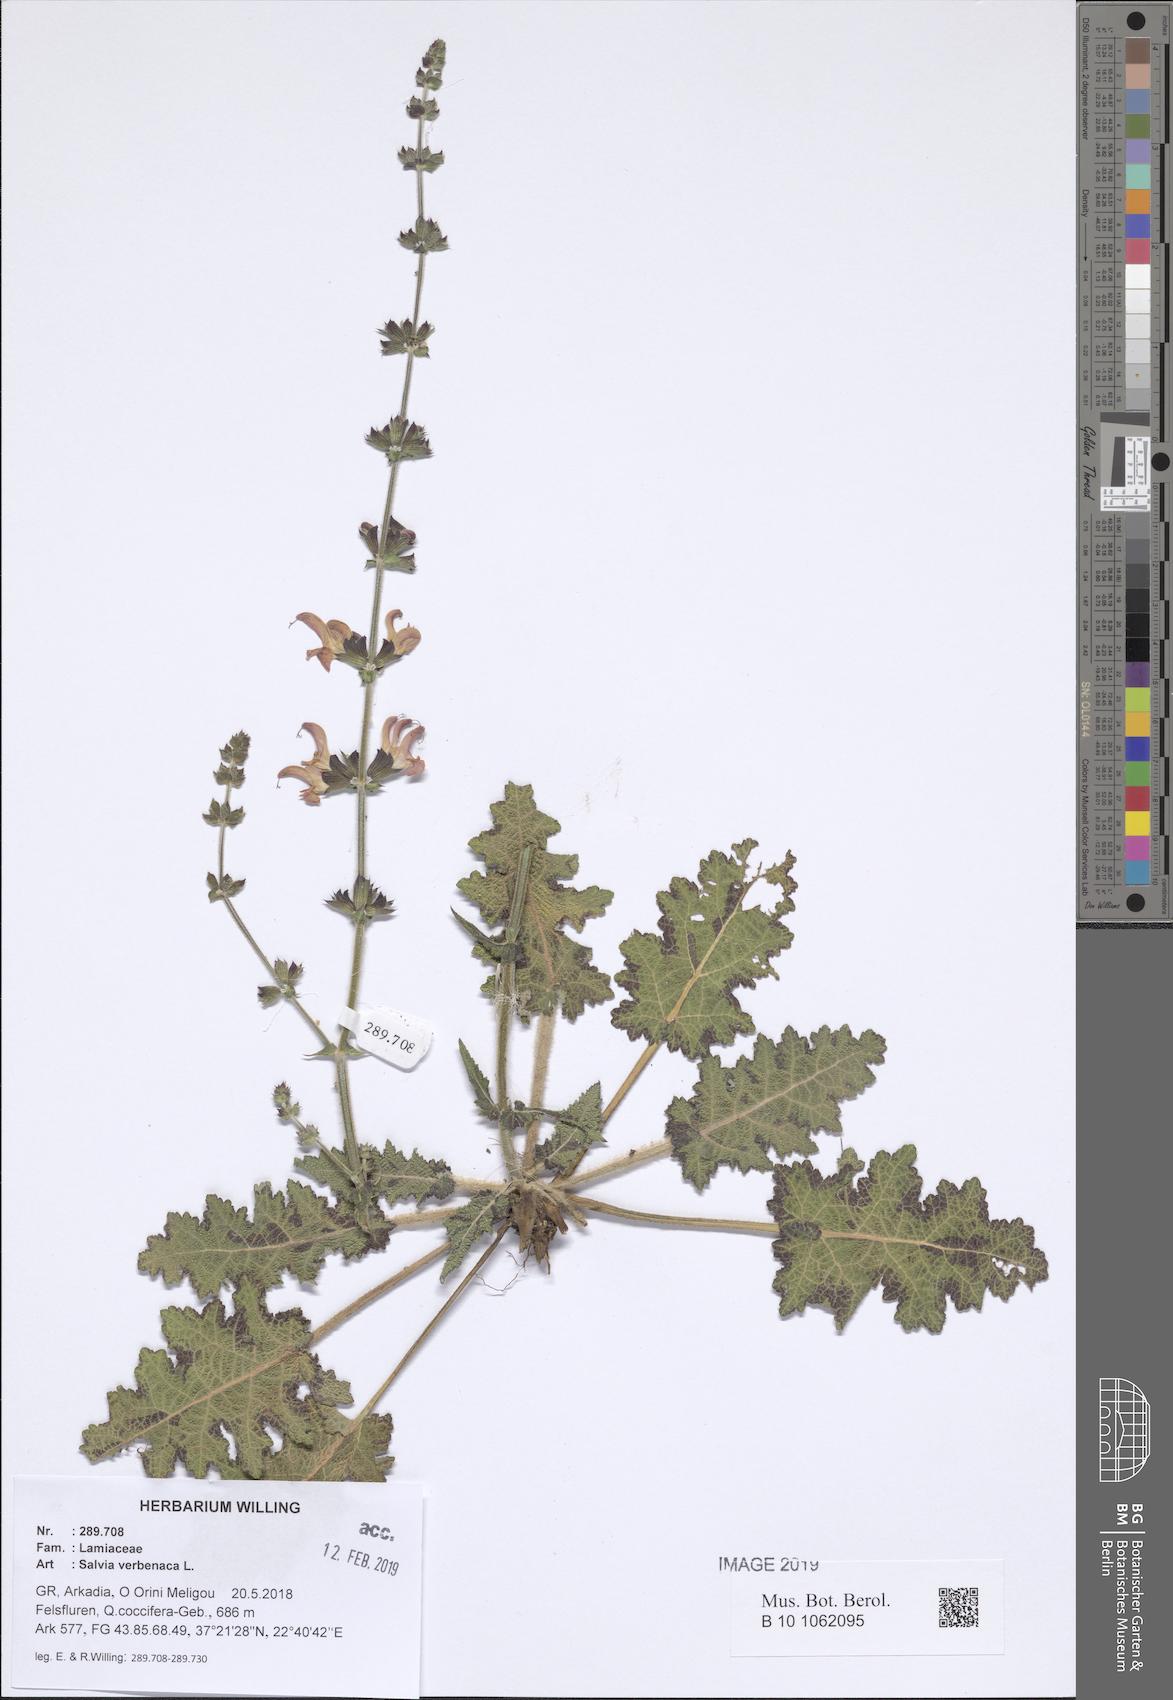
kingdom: Plantae
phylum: Tracheophyta
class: Magnoliopsida
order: Lamiales
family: Lamiaceae
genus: Salvia
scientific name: Salvia verbenaca
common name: Wild clary
